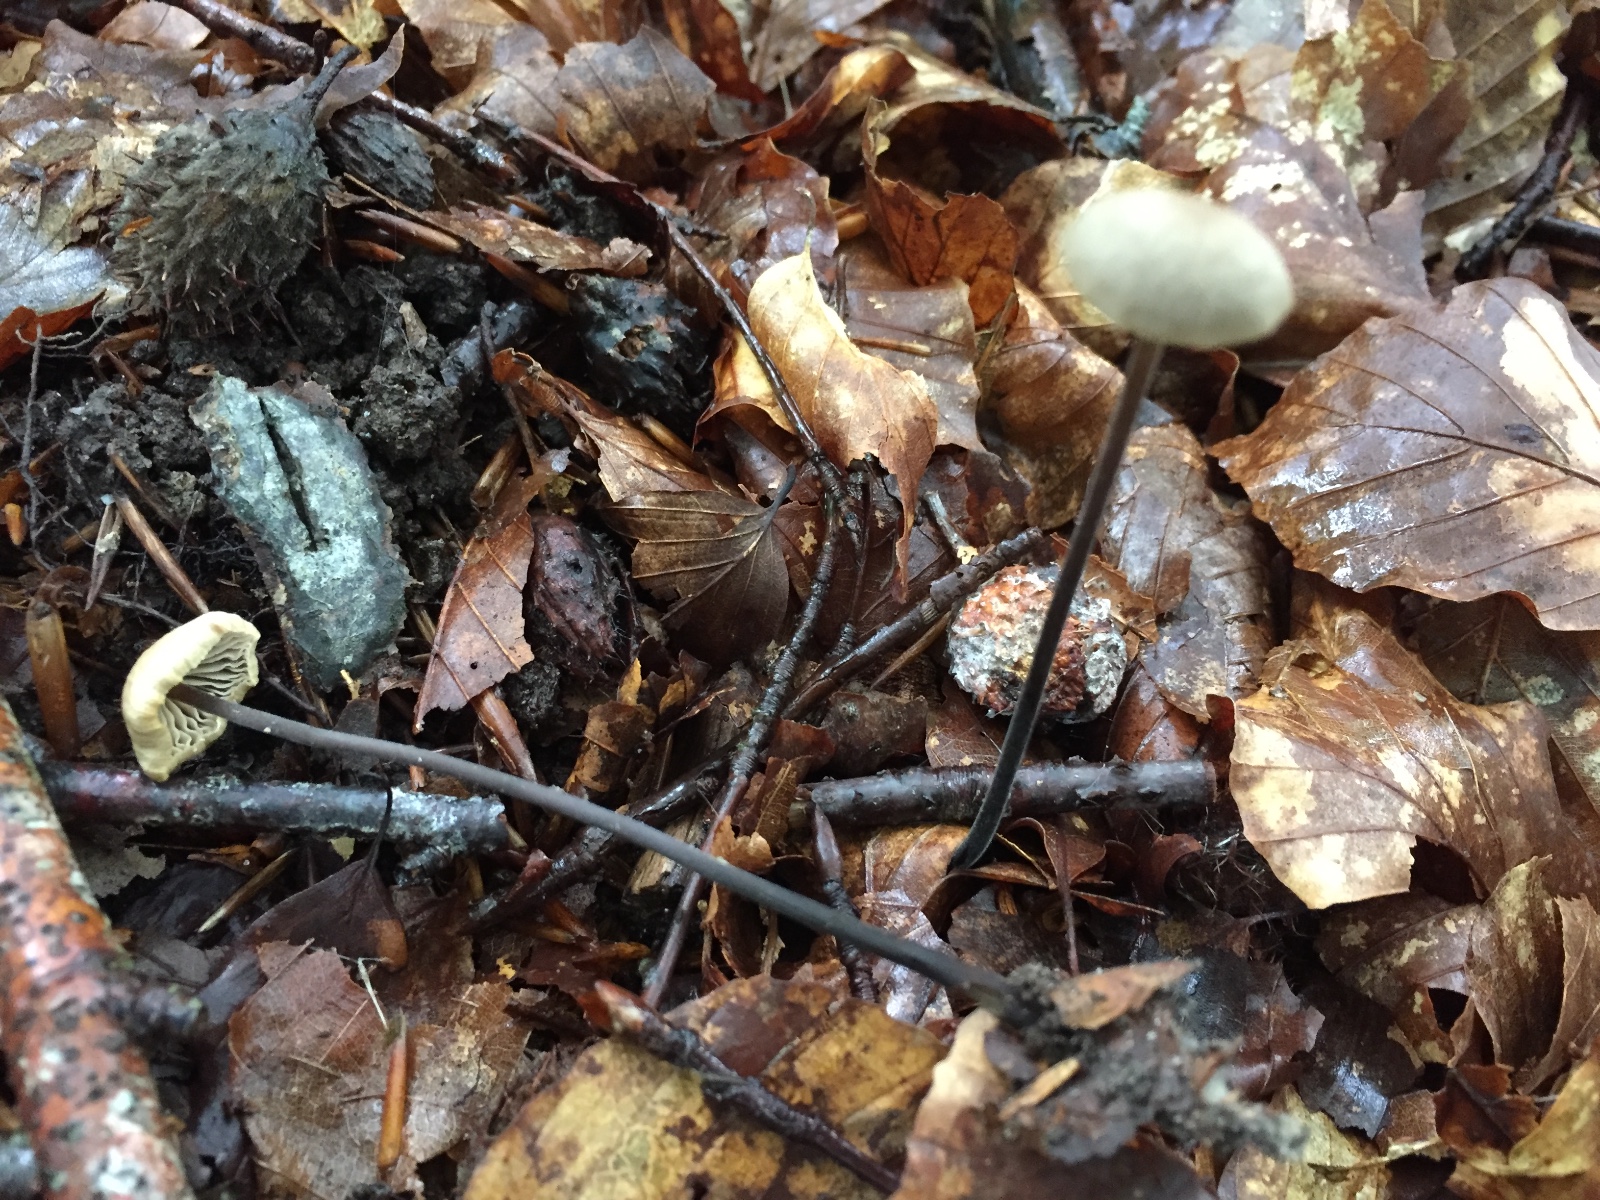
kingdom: Fungi
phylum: Basidiomycota
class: Agaricomycetes
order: Agaricales
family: Omphalotaceae
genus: Mycetinis
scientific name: Mycetinis alliaceus
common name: stor løghat
